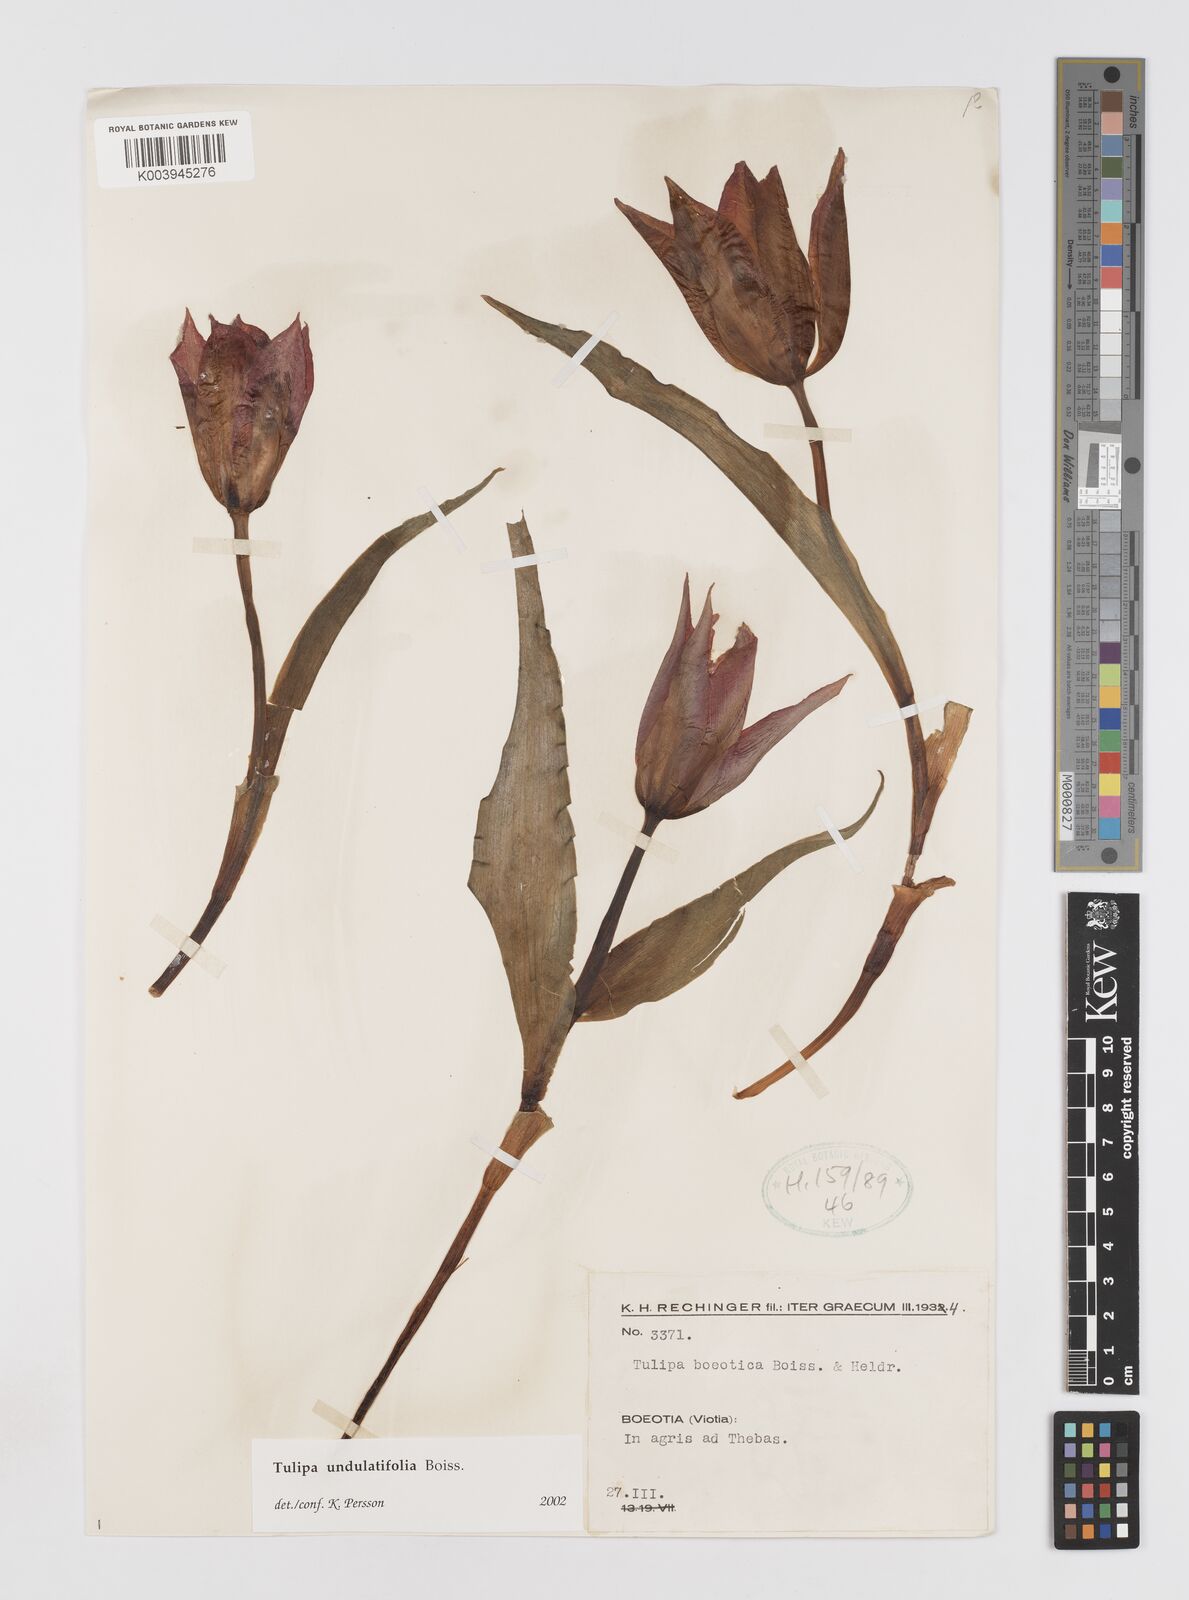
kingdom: Plantae
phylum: Tracheophyta
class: Liliopsida
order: Liliales
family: Liliaceae
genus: Tulipa
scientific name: Tulipa undulatifolia
